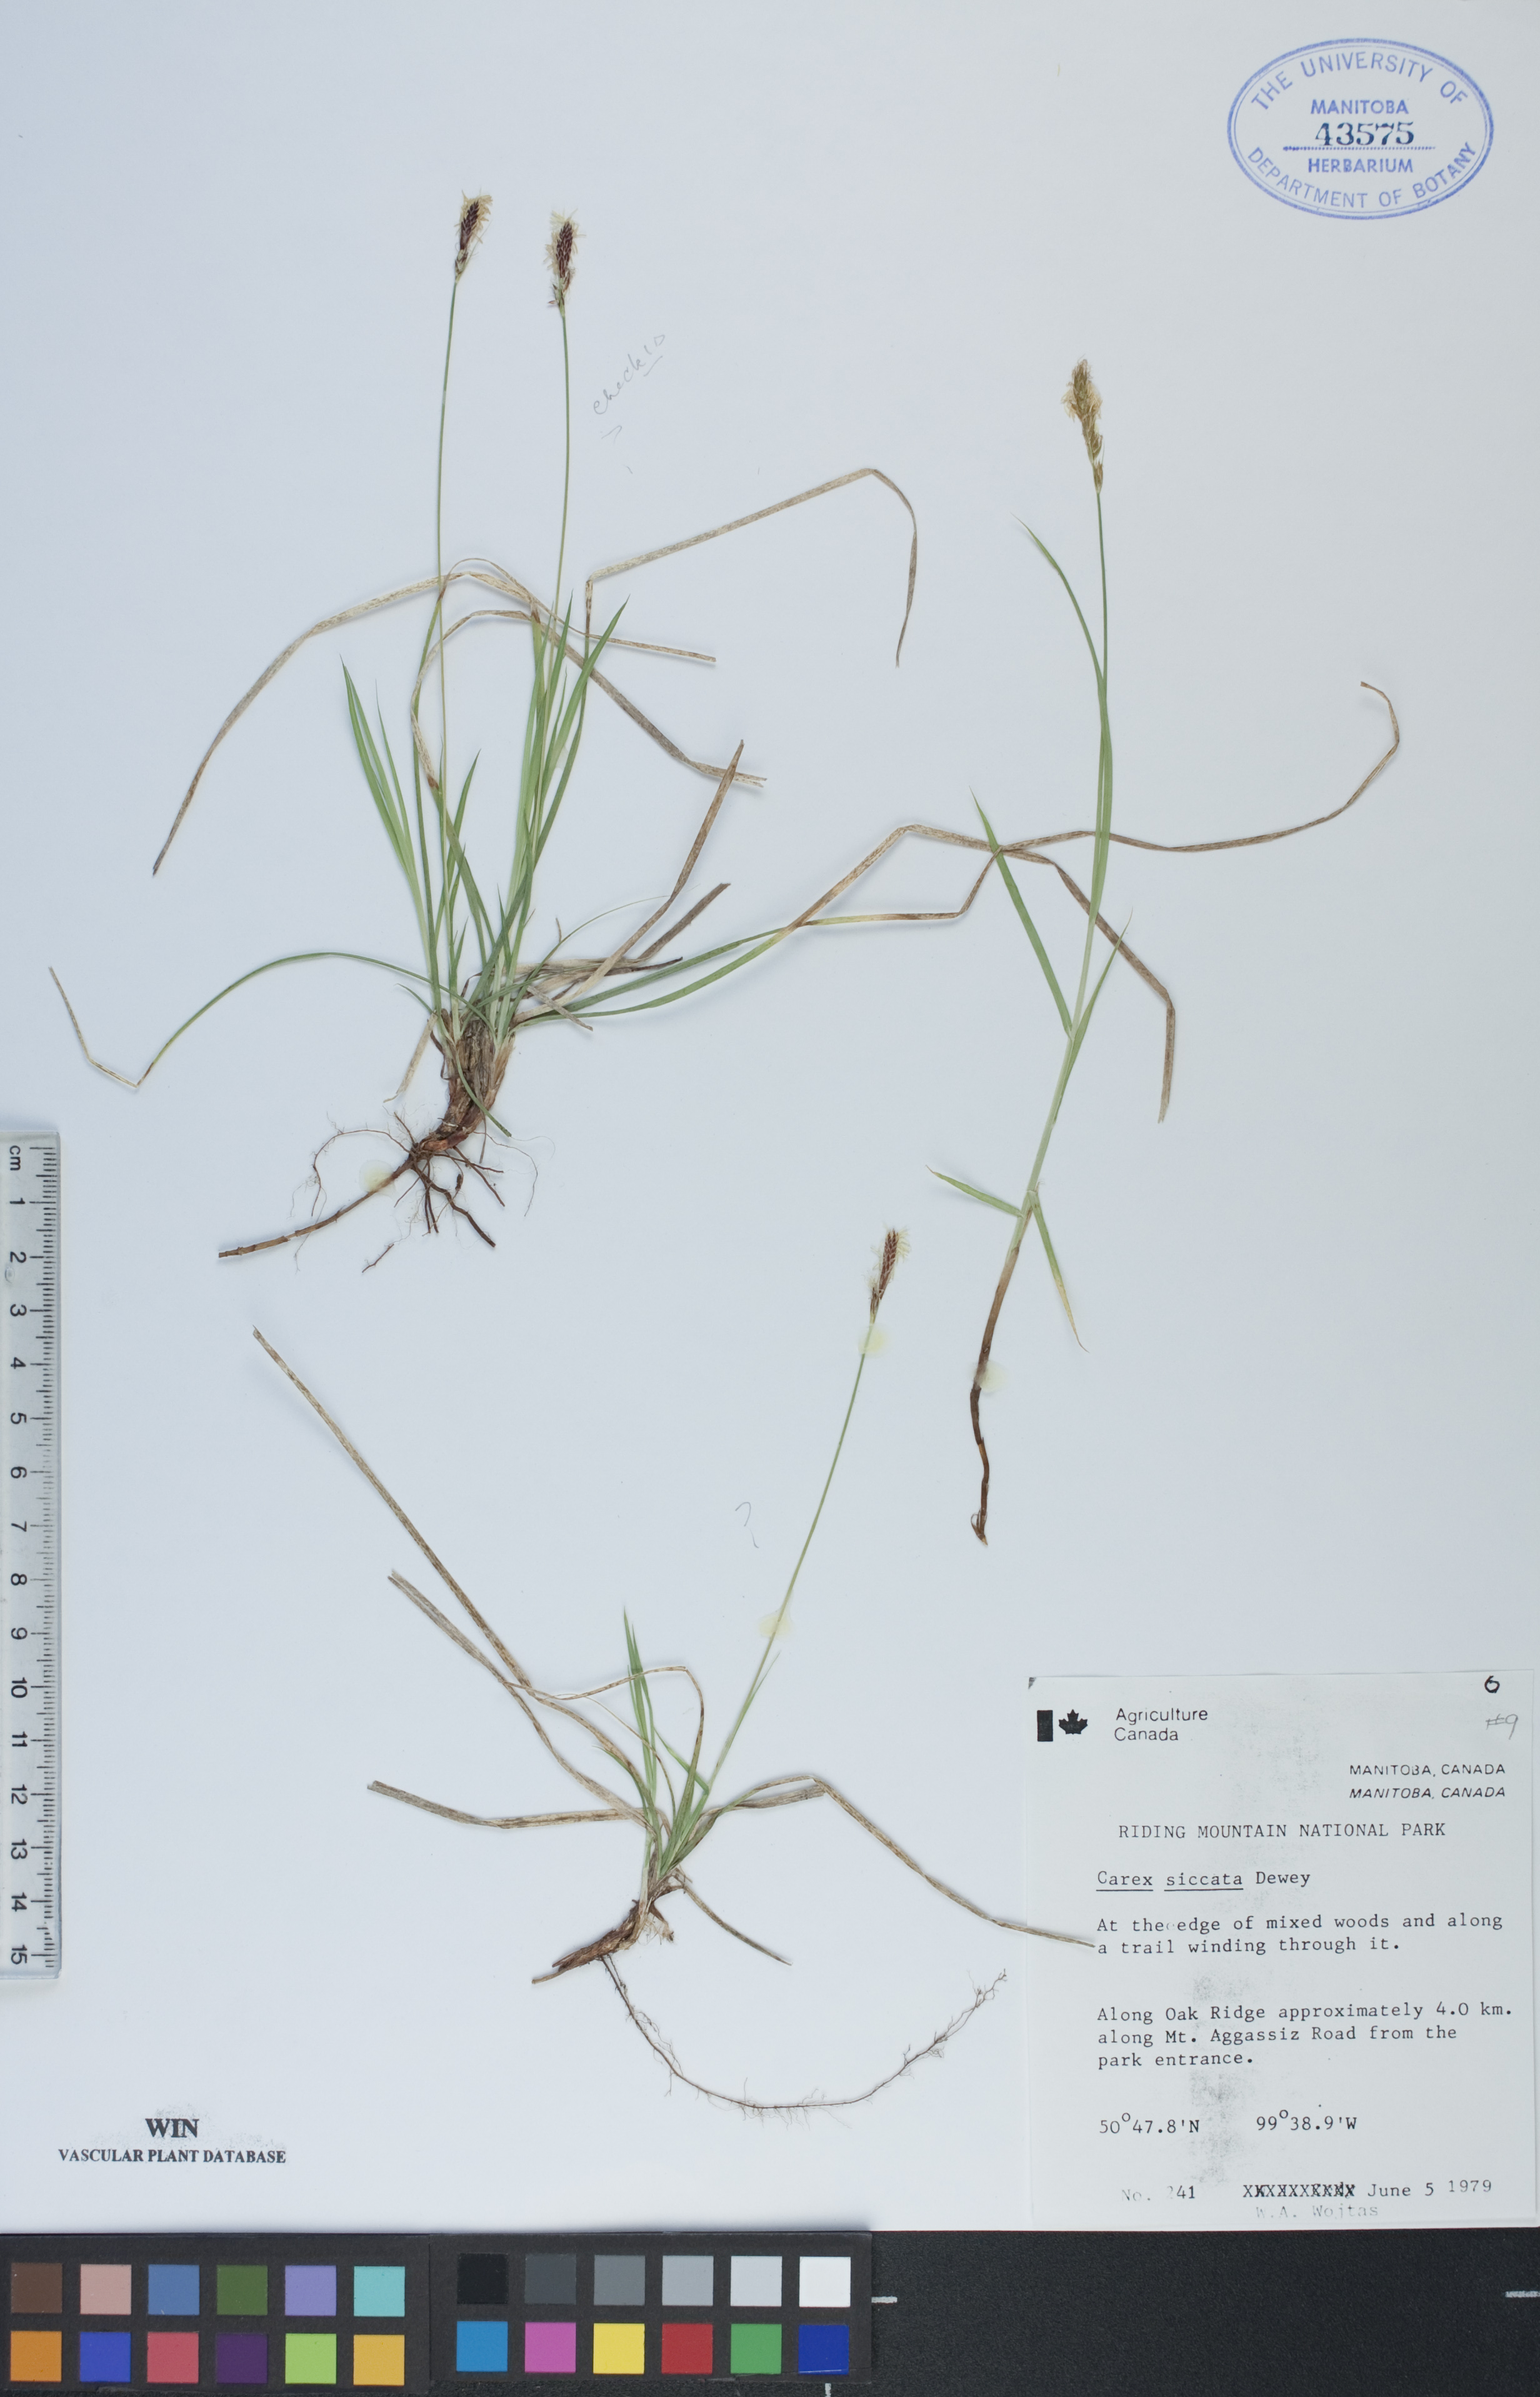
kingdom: Plantae
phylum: Tracheophyta
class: Liliopsida
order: Poales
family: Cyperaceae
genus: Carex
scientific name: Carex siccata
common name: Dry sedge
